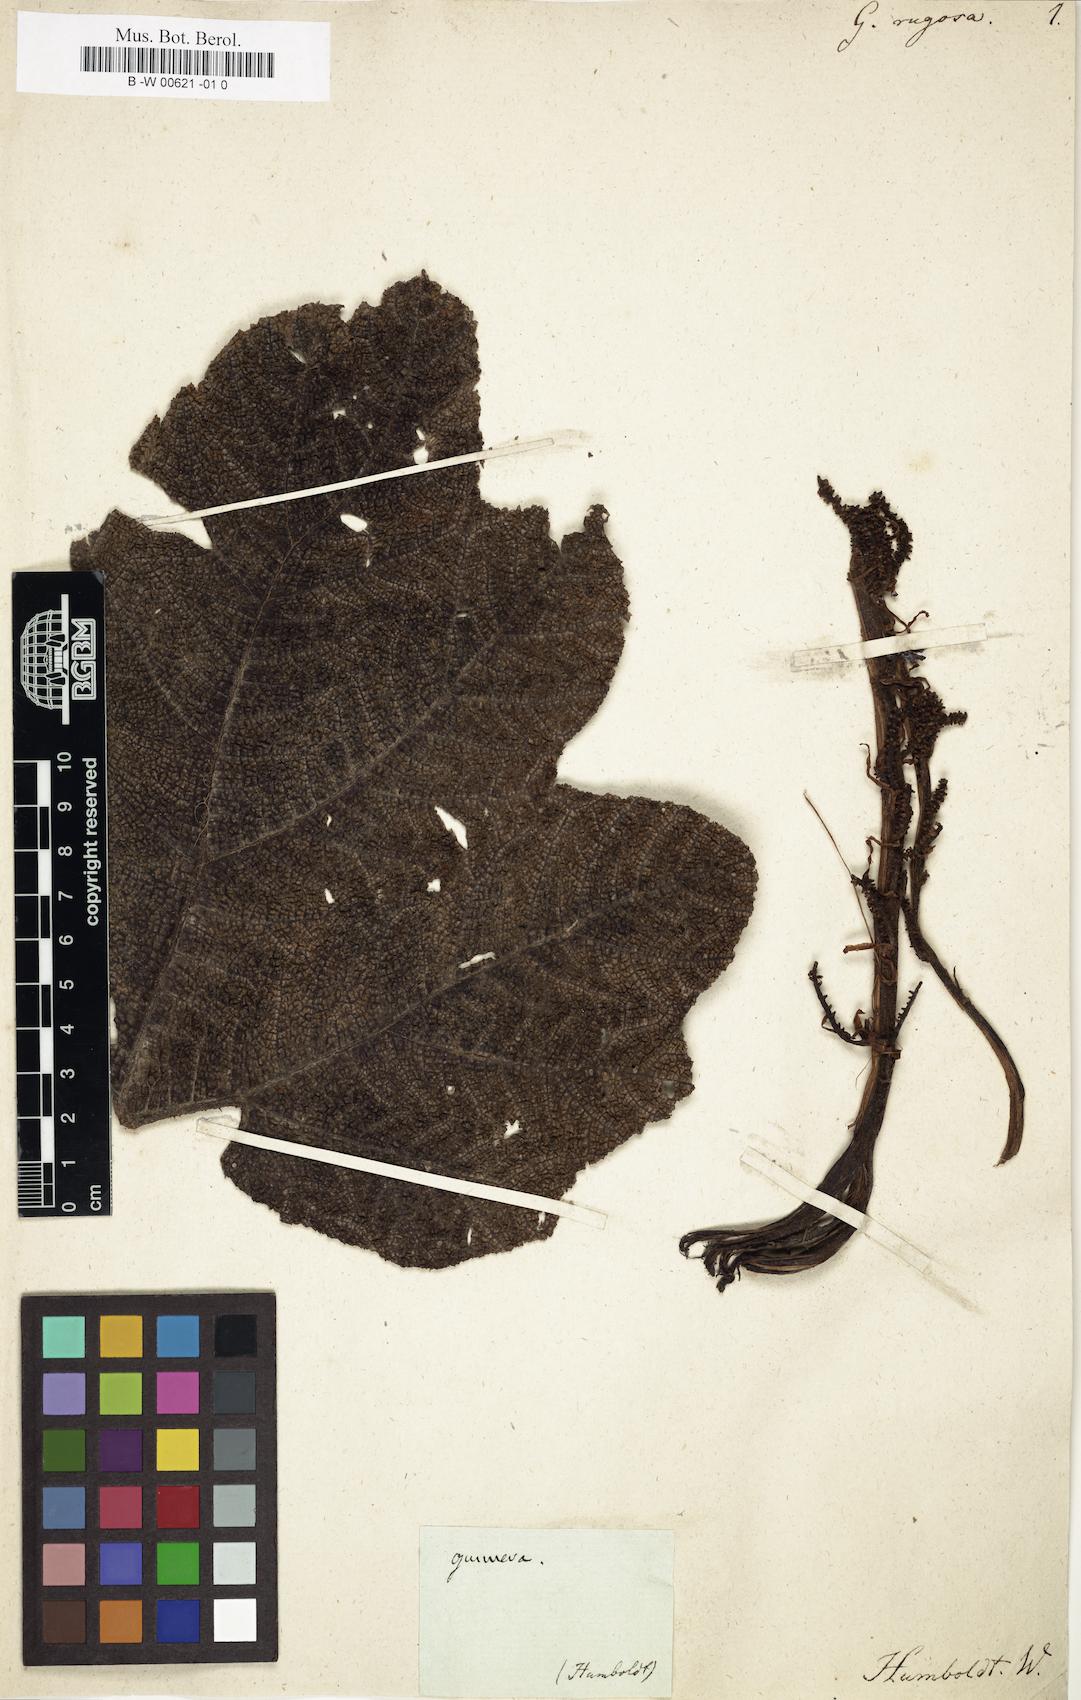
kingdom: Plantae
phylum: Tracheophyta
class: Magnoliopsida
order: Gunnerales
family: Gunneraceae
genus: Gunnera
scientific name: Gunnera
